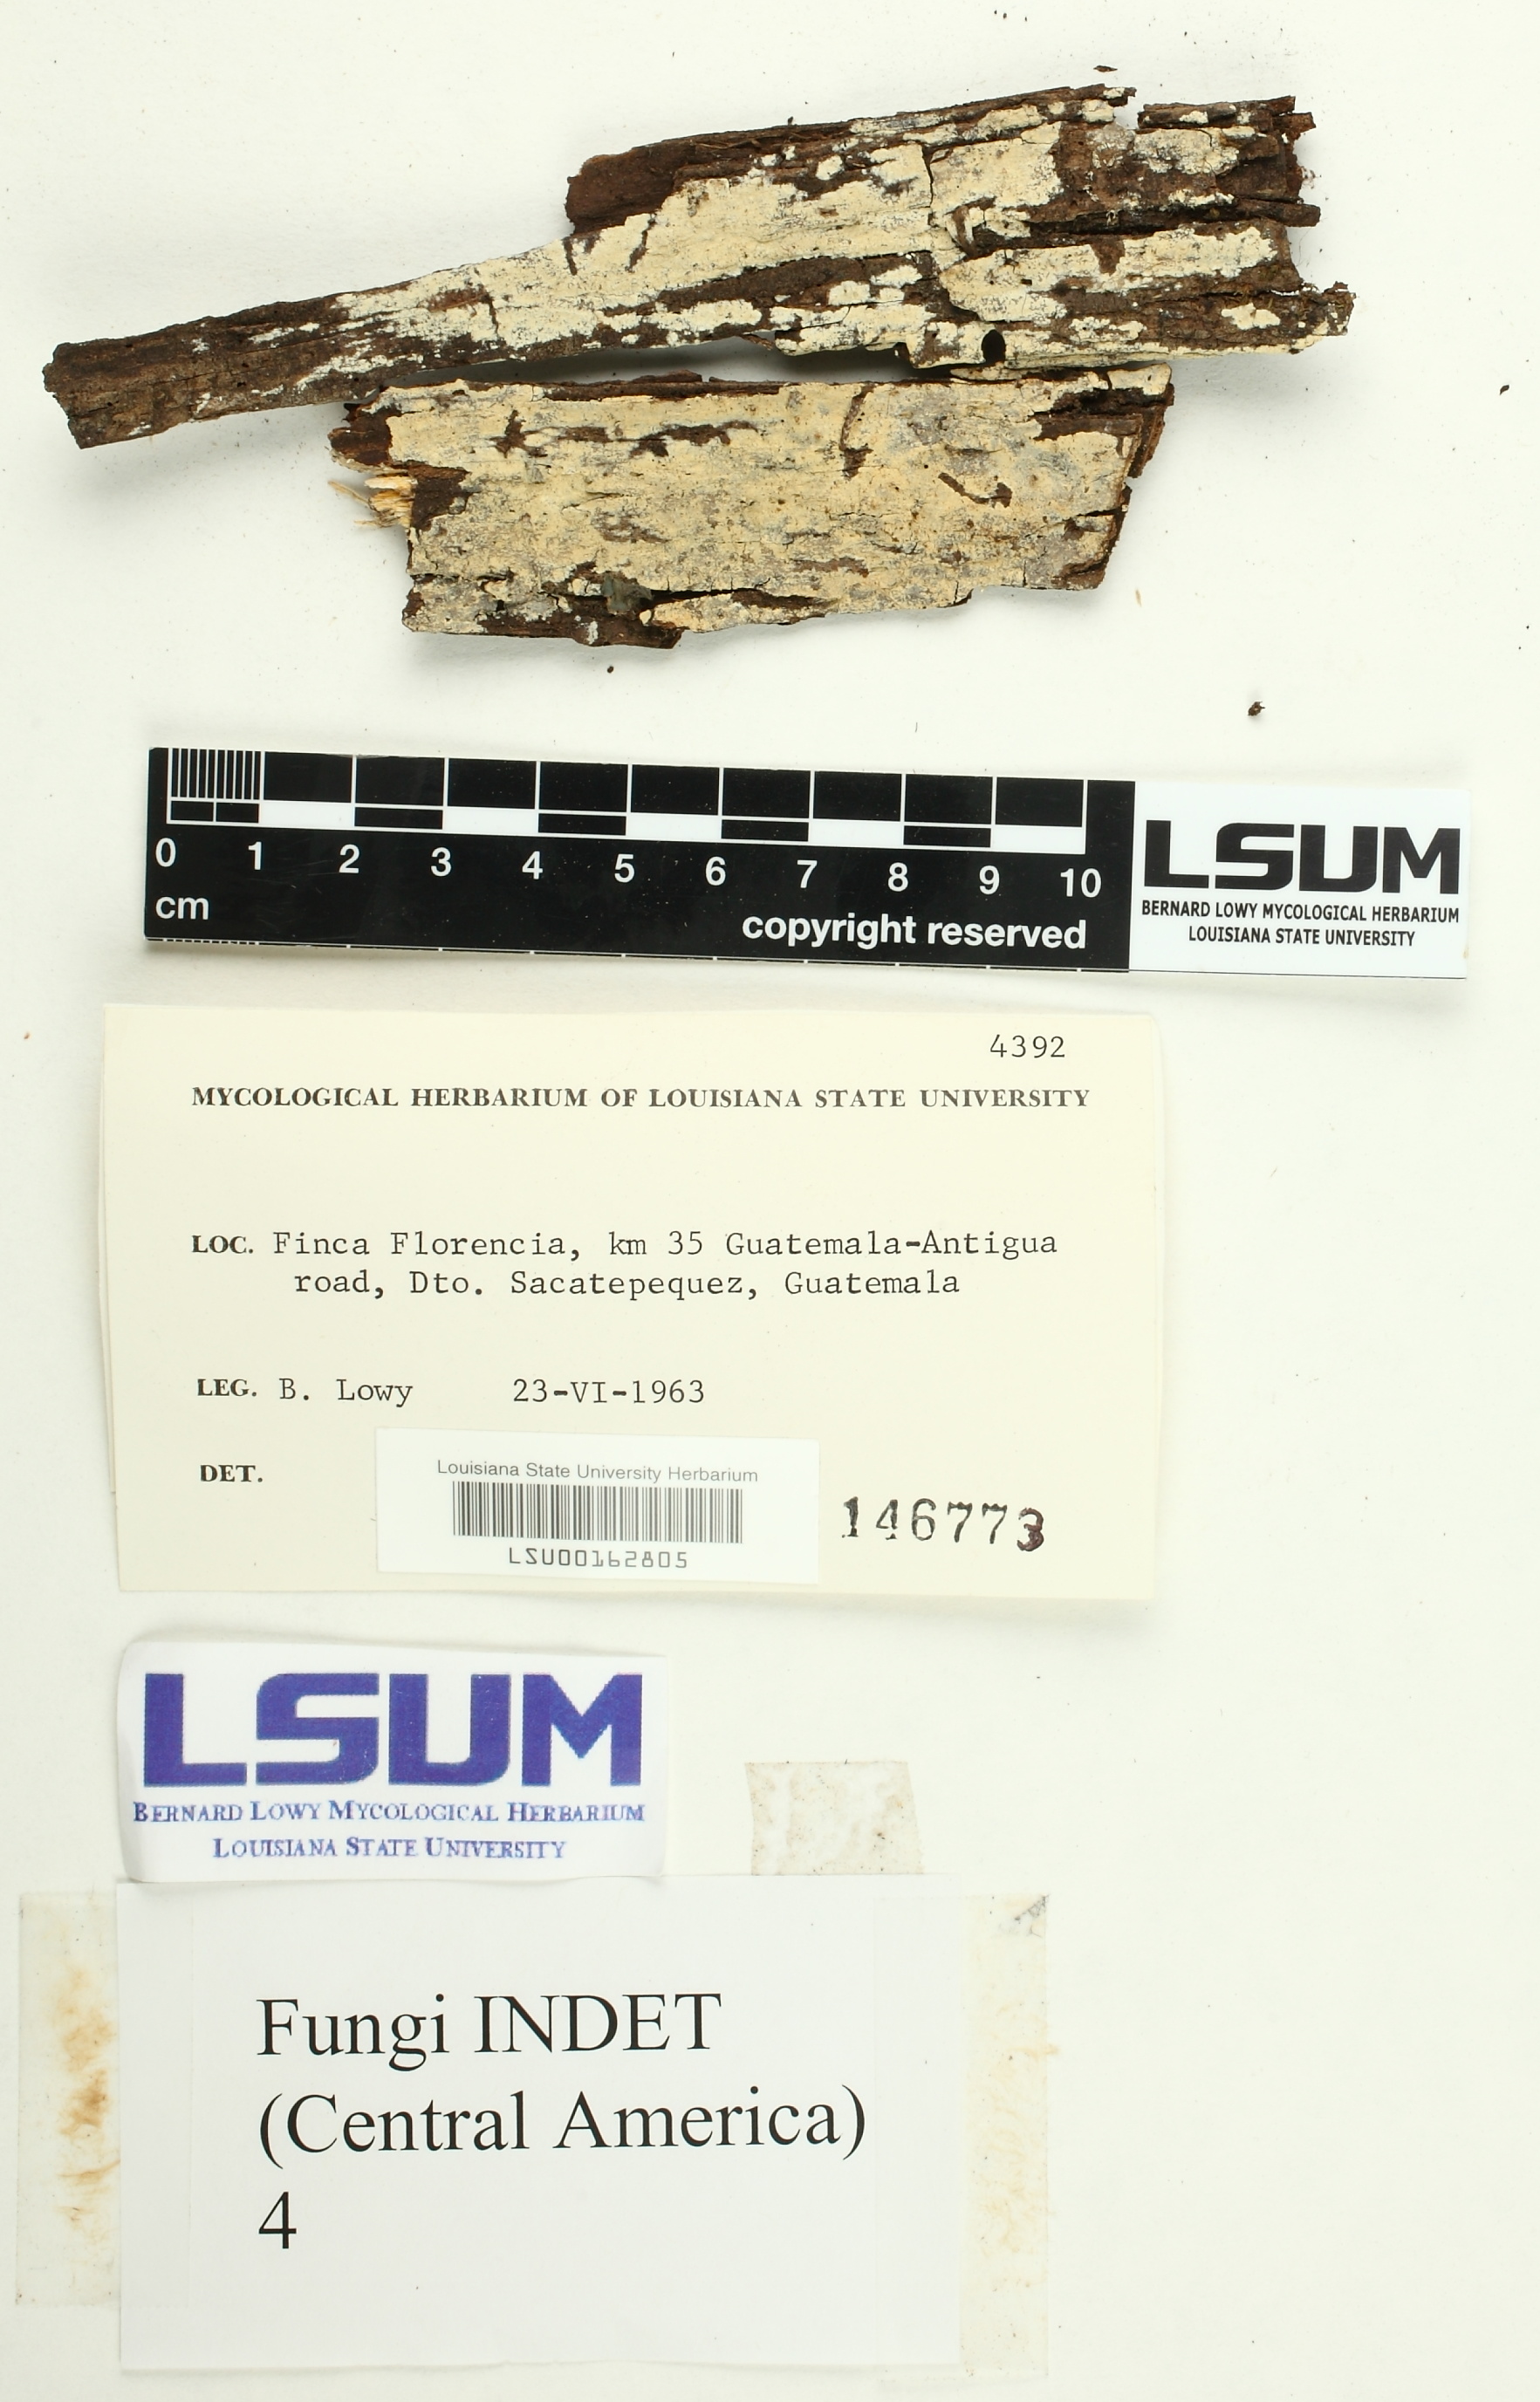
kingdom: Fungi
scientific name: Fungi
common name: Fungi
